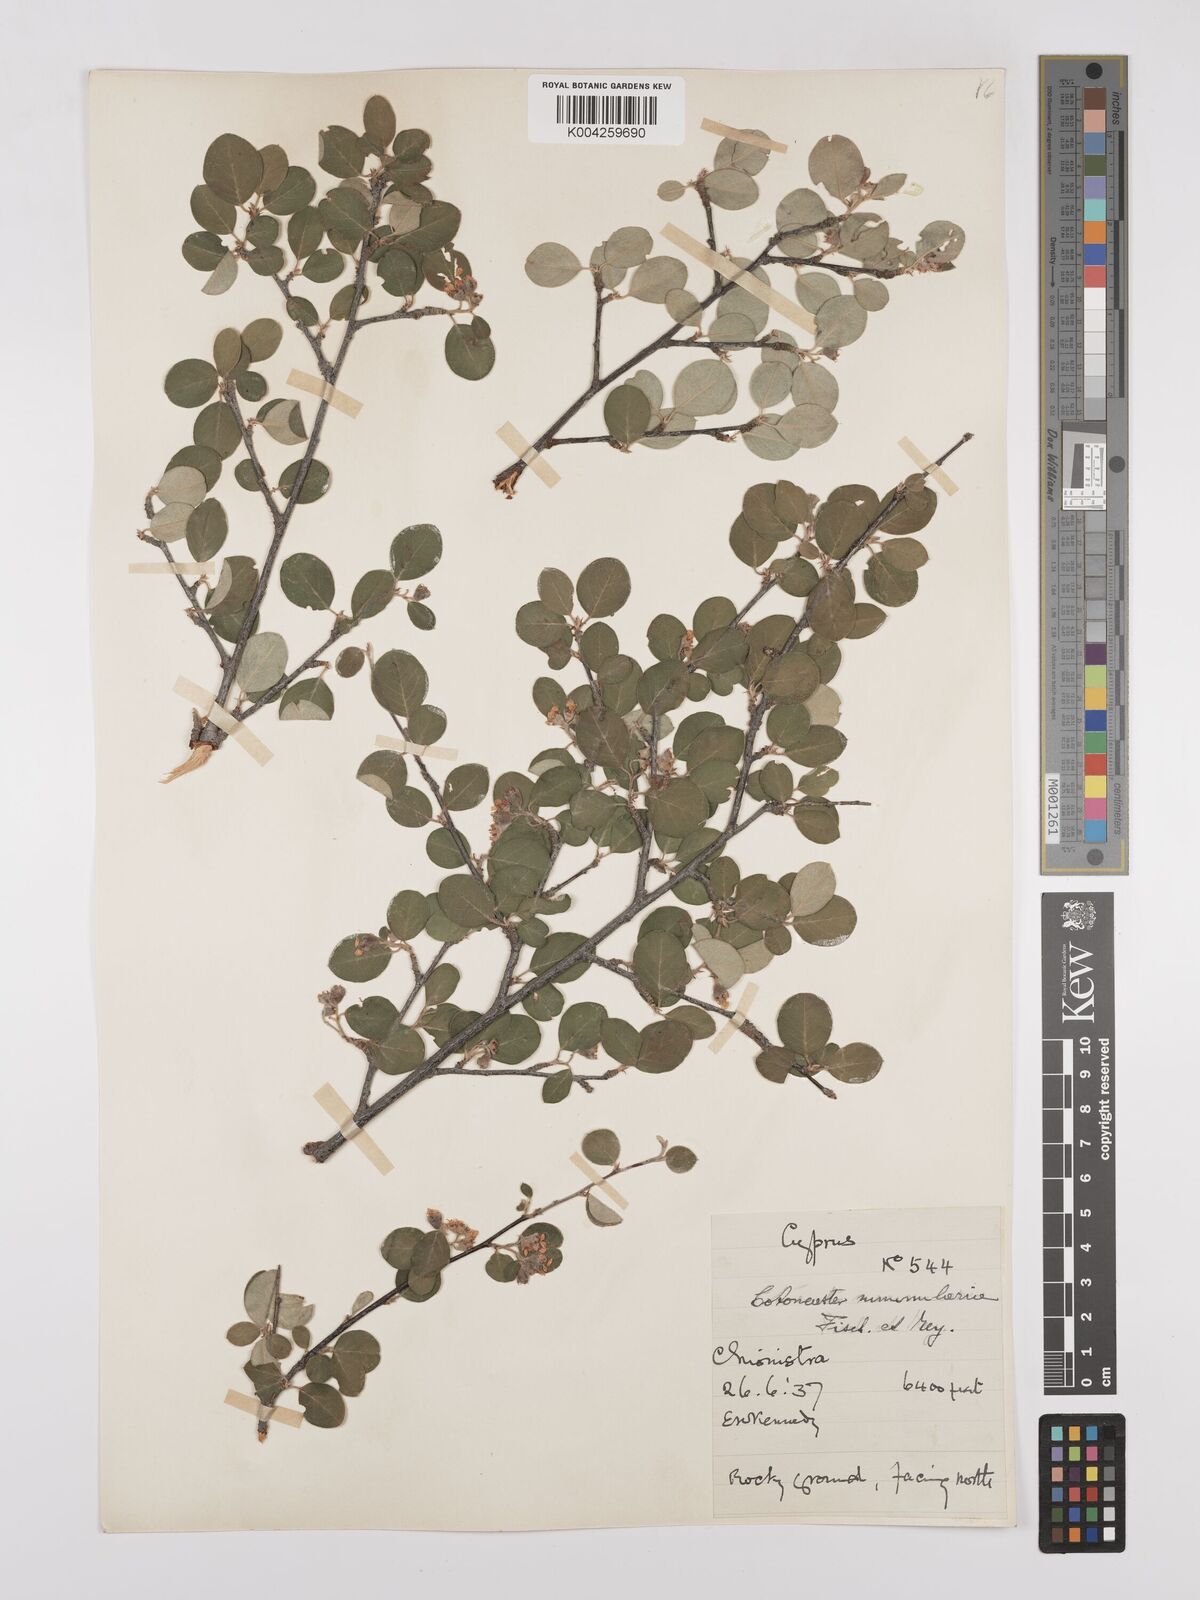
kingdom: Plantae
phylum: Tracheophyta
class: Magnoliopsida
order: Rosales
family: Rosaceae
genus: Cotoneaster
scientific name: Cotoneaster racemiflorus
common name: Cluster-flower cotoneaster
